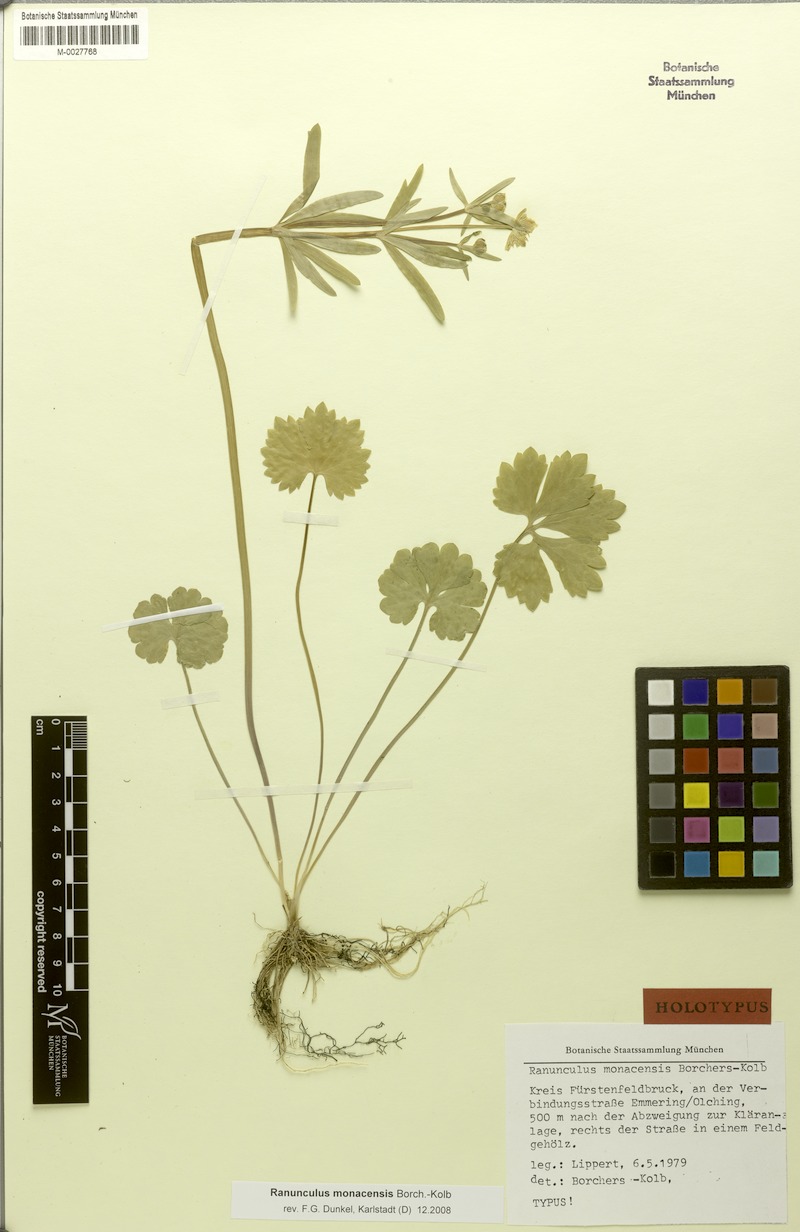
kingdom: Plantae
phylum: Tracheophyta
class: Magnoliopsida
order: Ranunculales
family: Ranunculaceae
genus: Ranunculus
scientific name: Ranunculus monacensis
